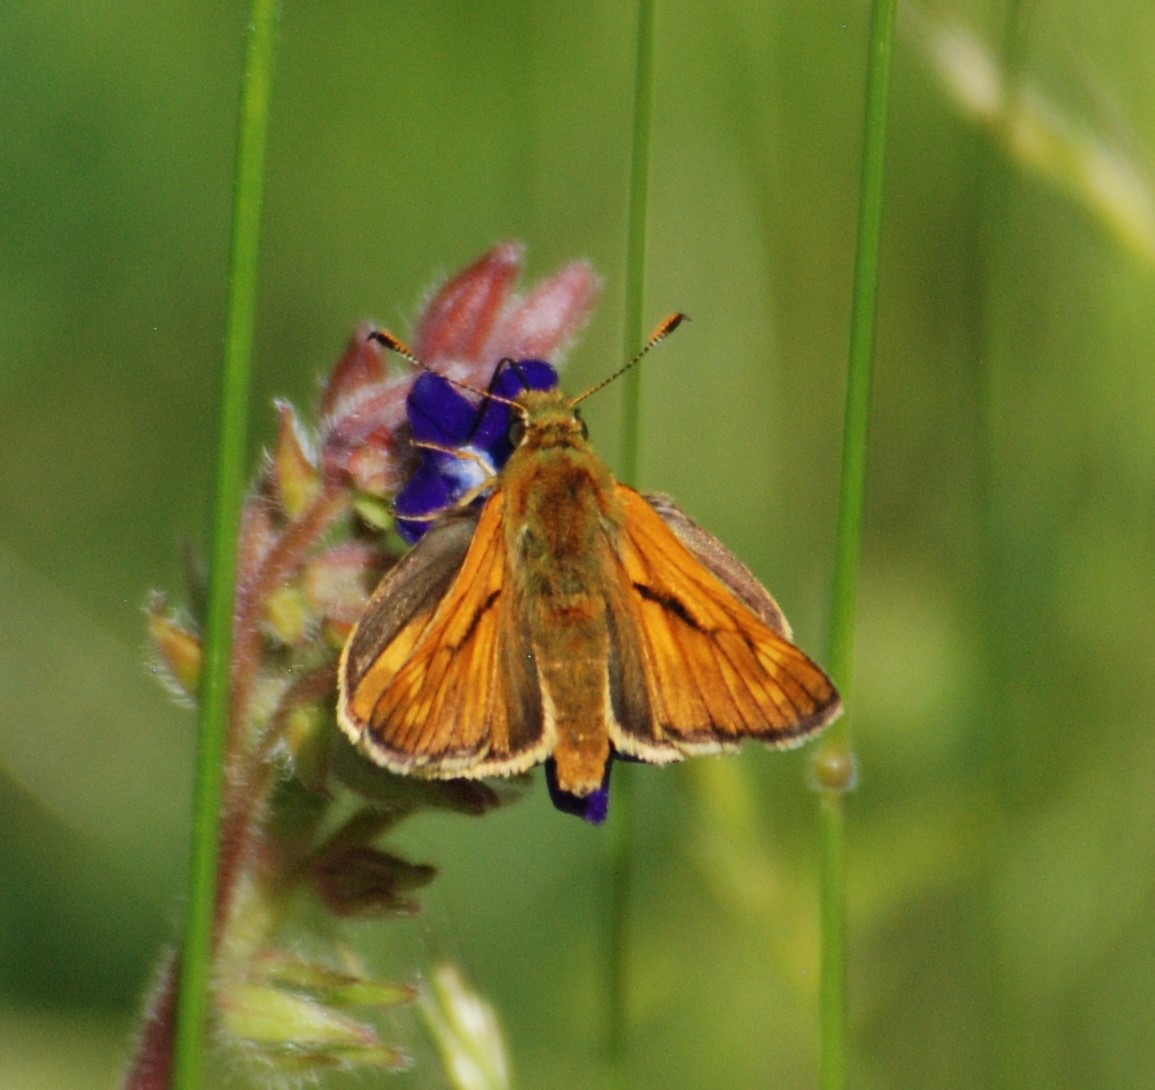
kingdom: Animalia
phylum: Arthropoda
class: Insecta
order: Lepidoptera
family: Hesperiidae
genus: Ochlodes
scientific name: Ochlodes venata
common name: Stor bredpande
